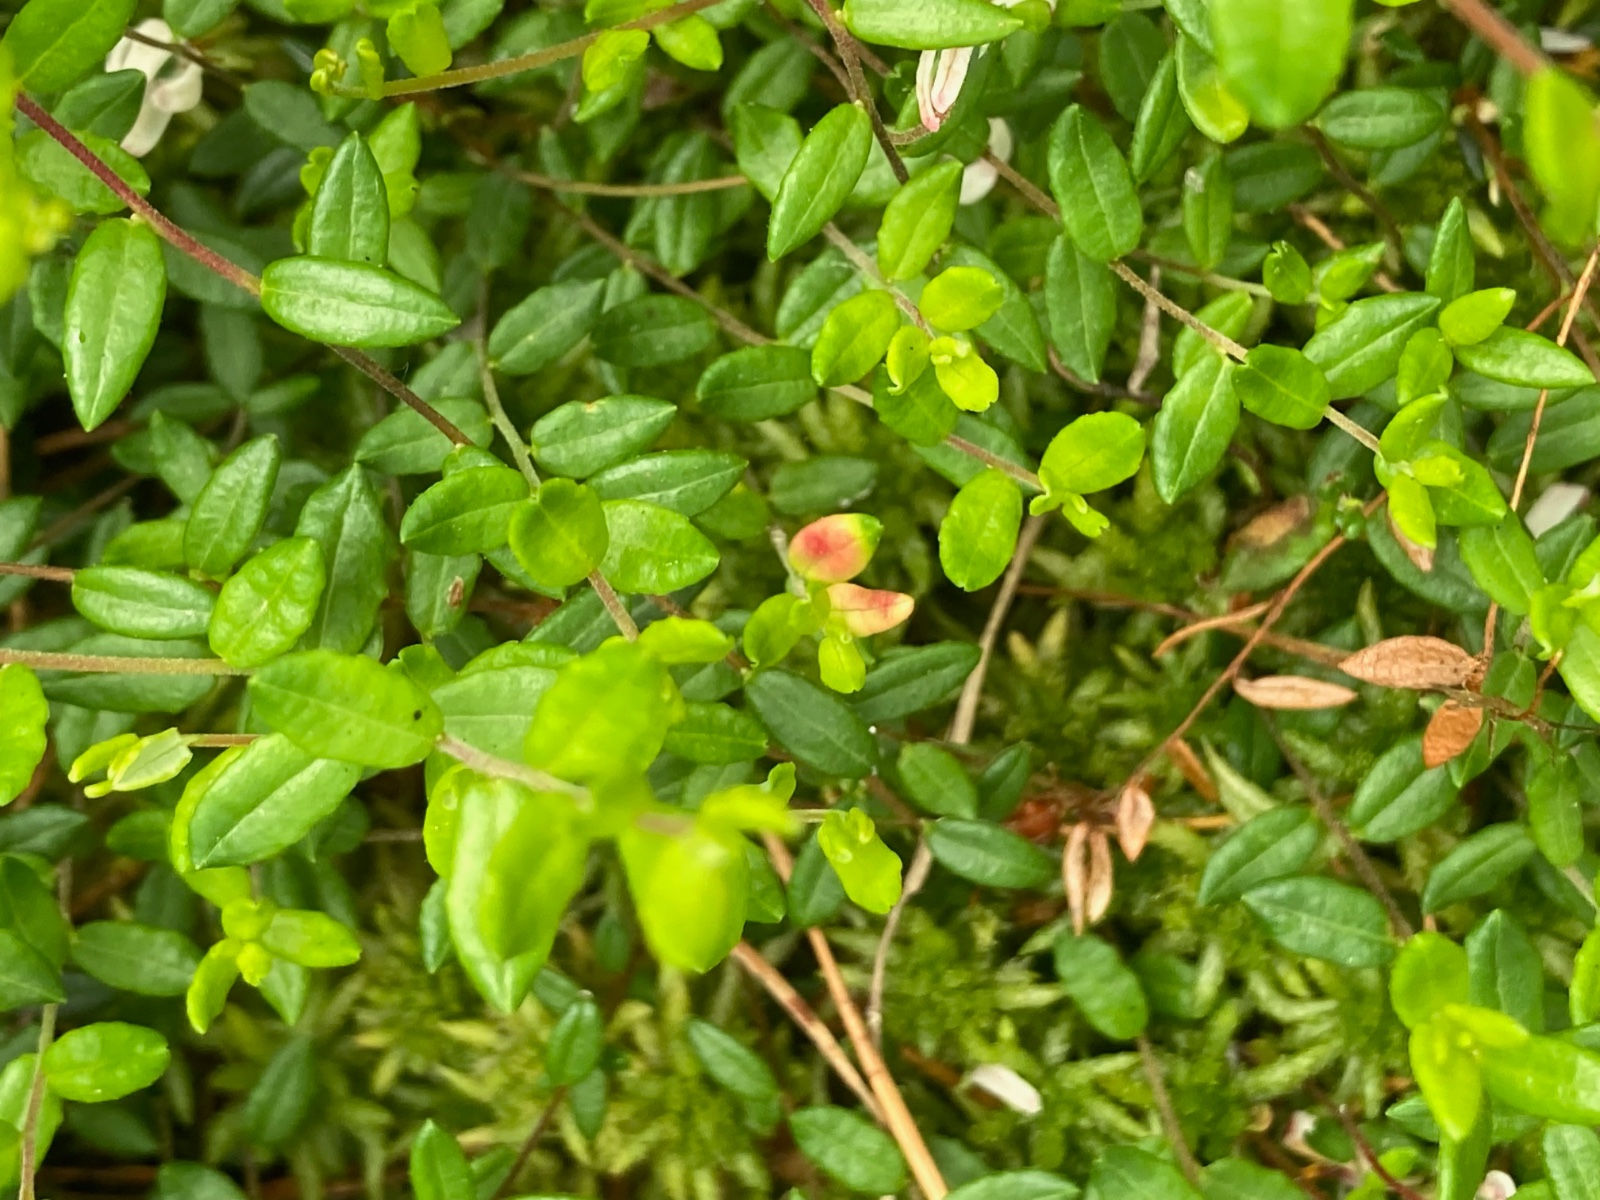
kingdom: Fungi
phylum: Basidiomycota
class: Exobasidiomycetes
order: Exobasidiales
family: Exobasidiaceae
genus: Exobasidium
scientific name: Exobasidium rostrupii
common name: tranebærblad-bøllesvamp
